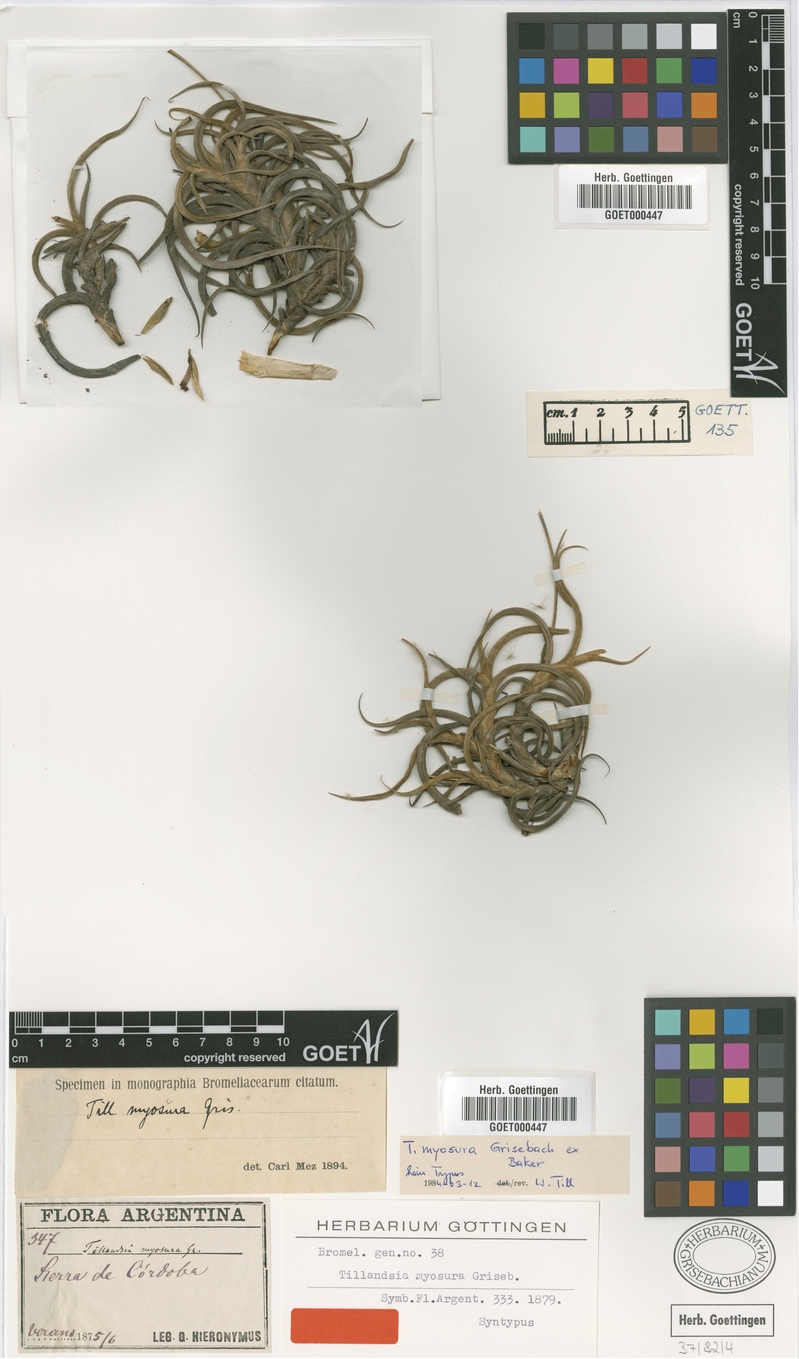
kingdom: Plantae
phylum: Tracheophyta
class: Liliopsida
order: Poales
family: Bromeliaceae
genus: Tillandsia
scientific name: Tillandsia caliginosa
